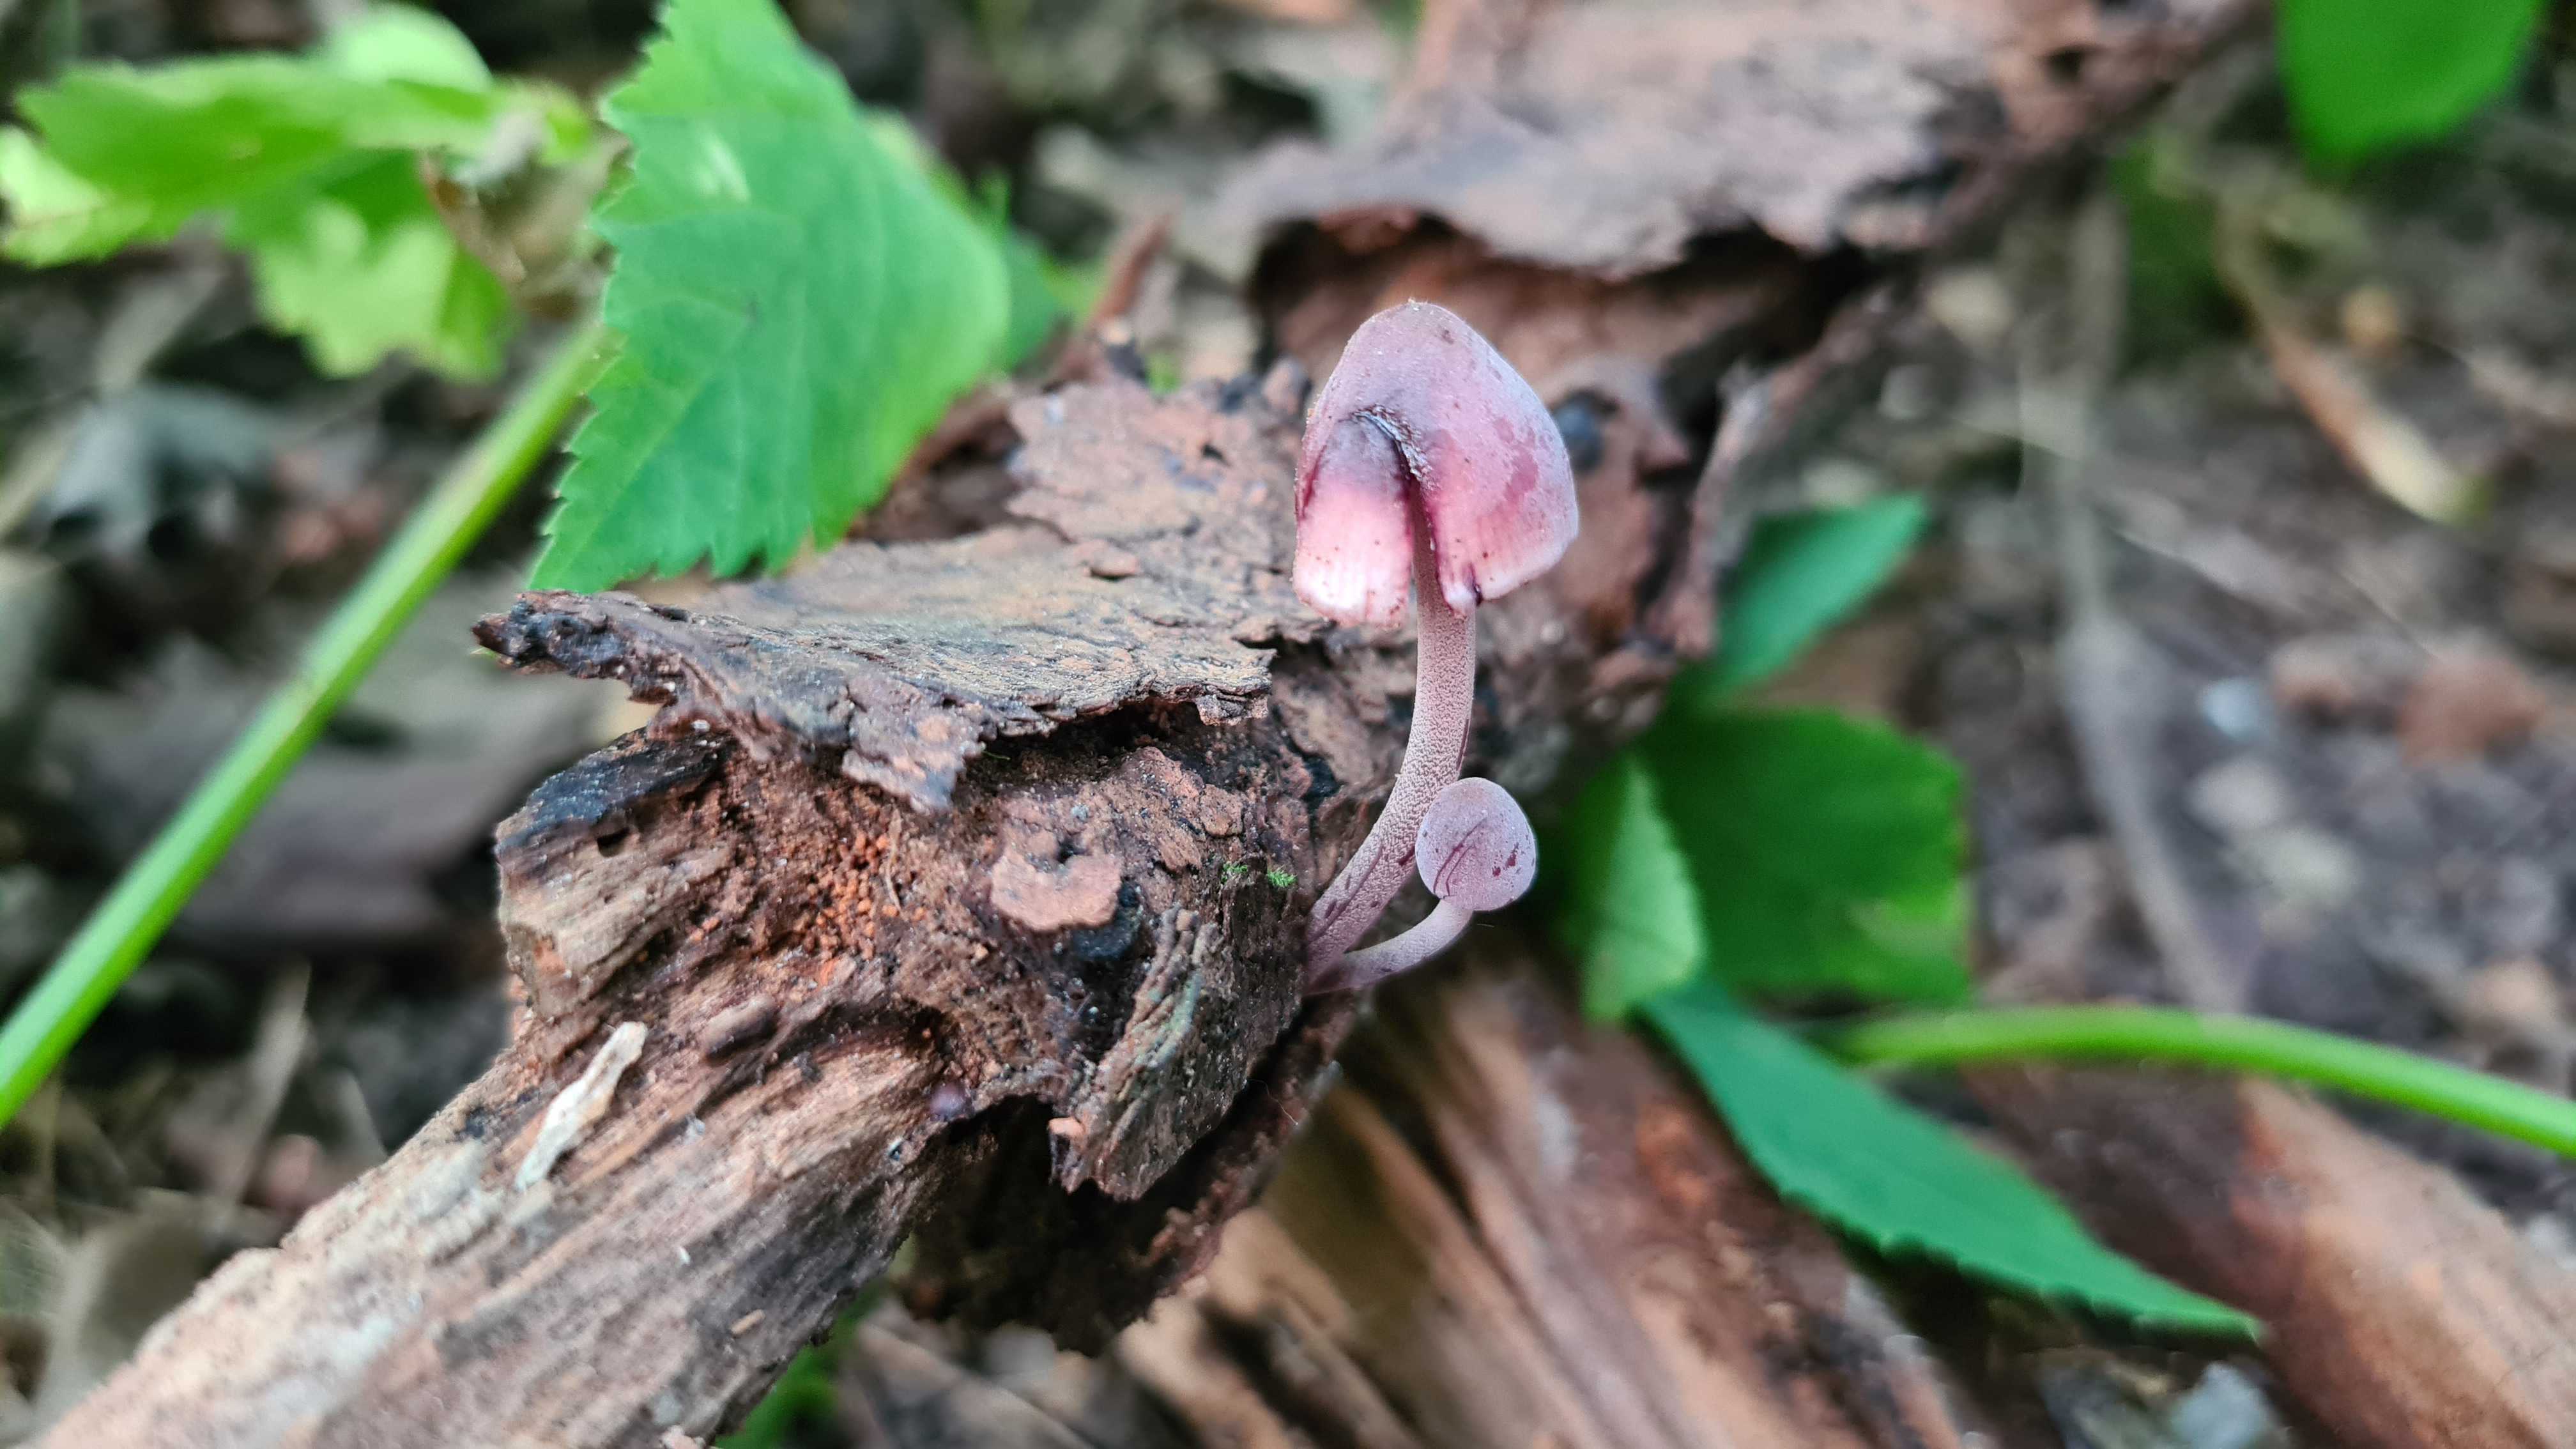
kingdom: Fungi
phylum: Basidiomycota
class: Agaricomycetes
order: Agaricales
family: Mycenaceae
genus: Mycena
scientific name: Mycena haematopus
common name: blødende huesvamp
